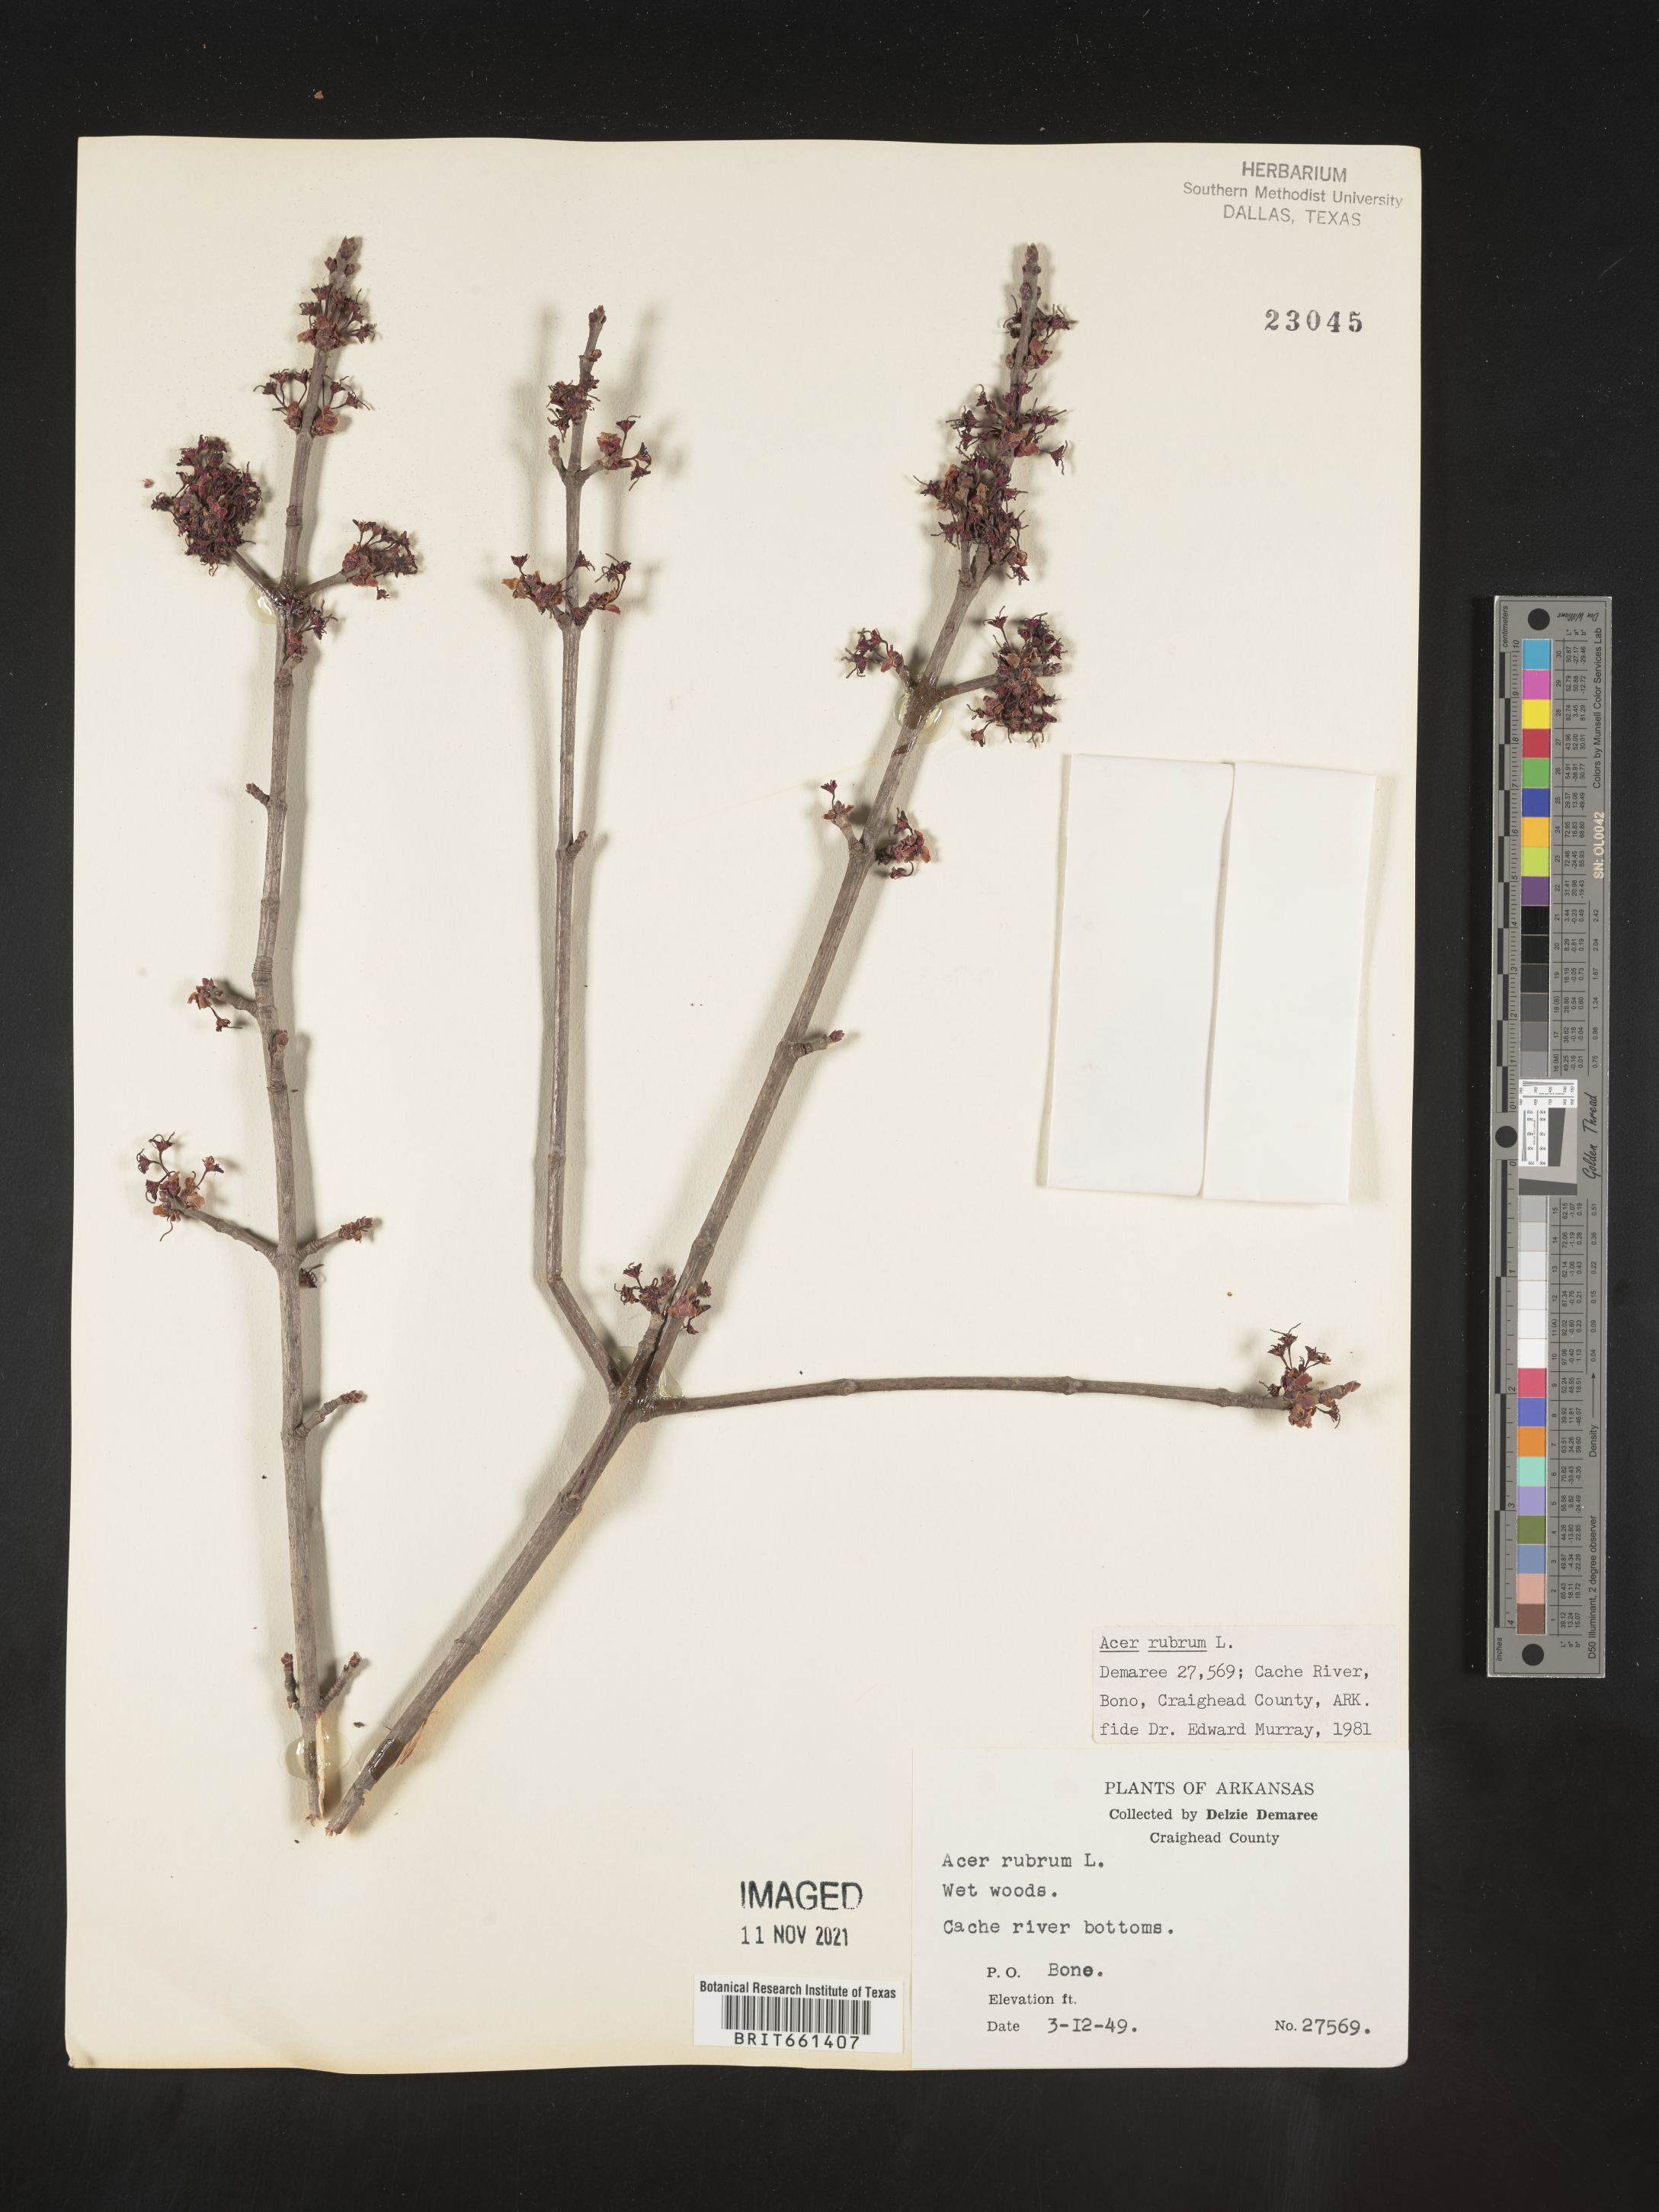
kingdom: Plantae
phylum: Tracheophyta
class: Magnoliopsida
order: Sapindales
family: Sapindaceae
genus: Acer
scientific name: Acer rubrum
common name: Red maple
